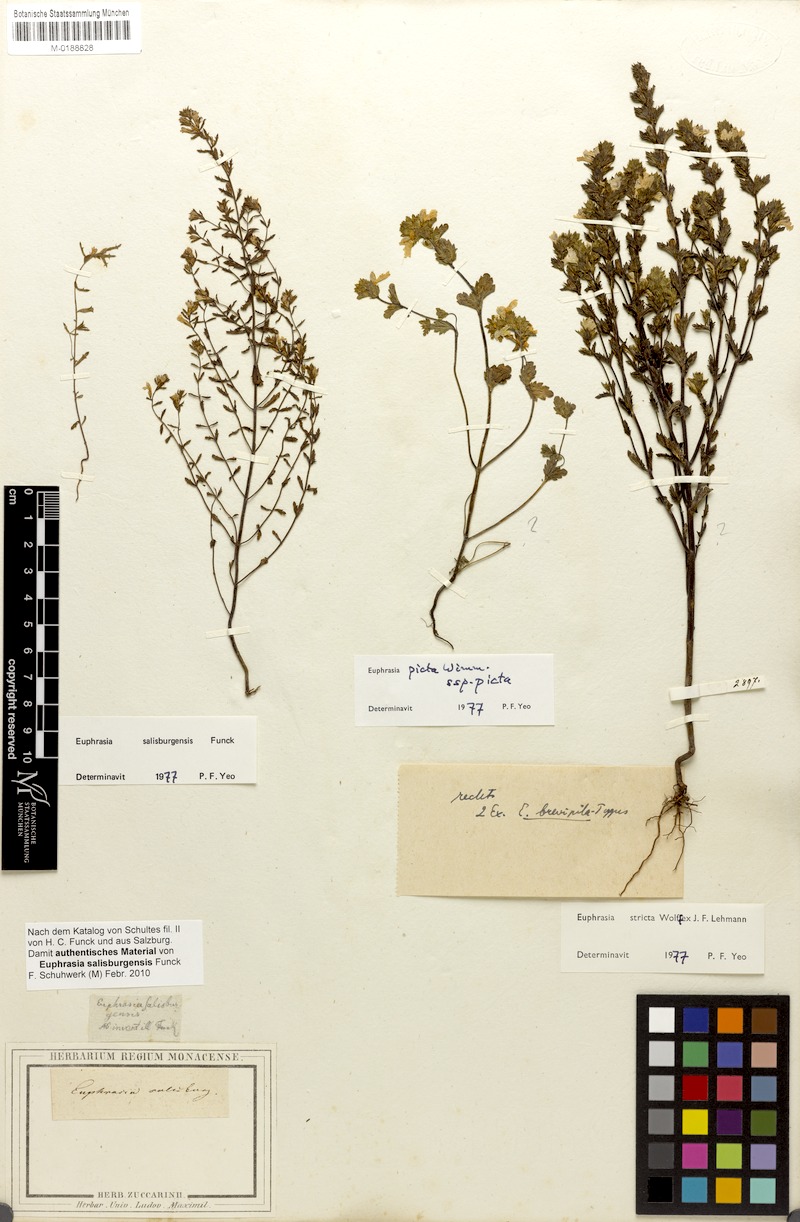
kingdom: Plantae
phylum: Tracheophyta
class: Magnoliopsida
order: Lamiales
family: Orobanchaceae
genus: Euphrasia
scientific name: Euphrasia salisburgensis
